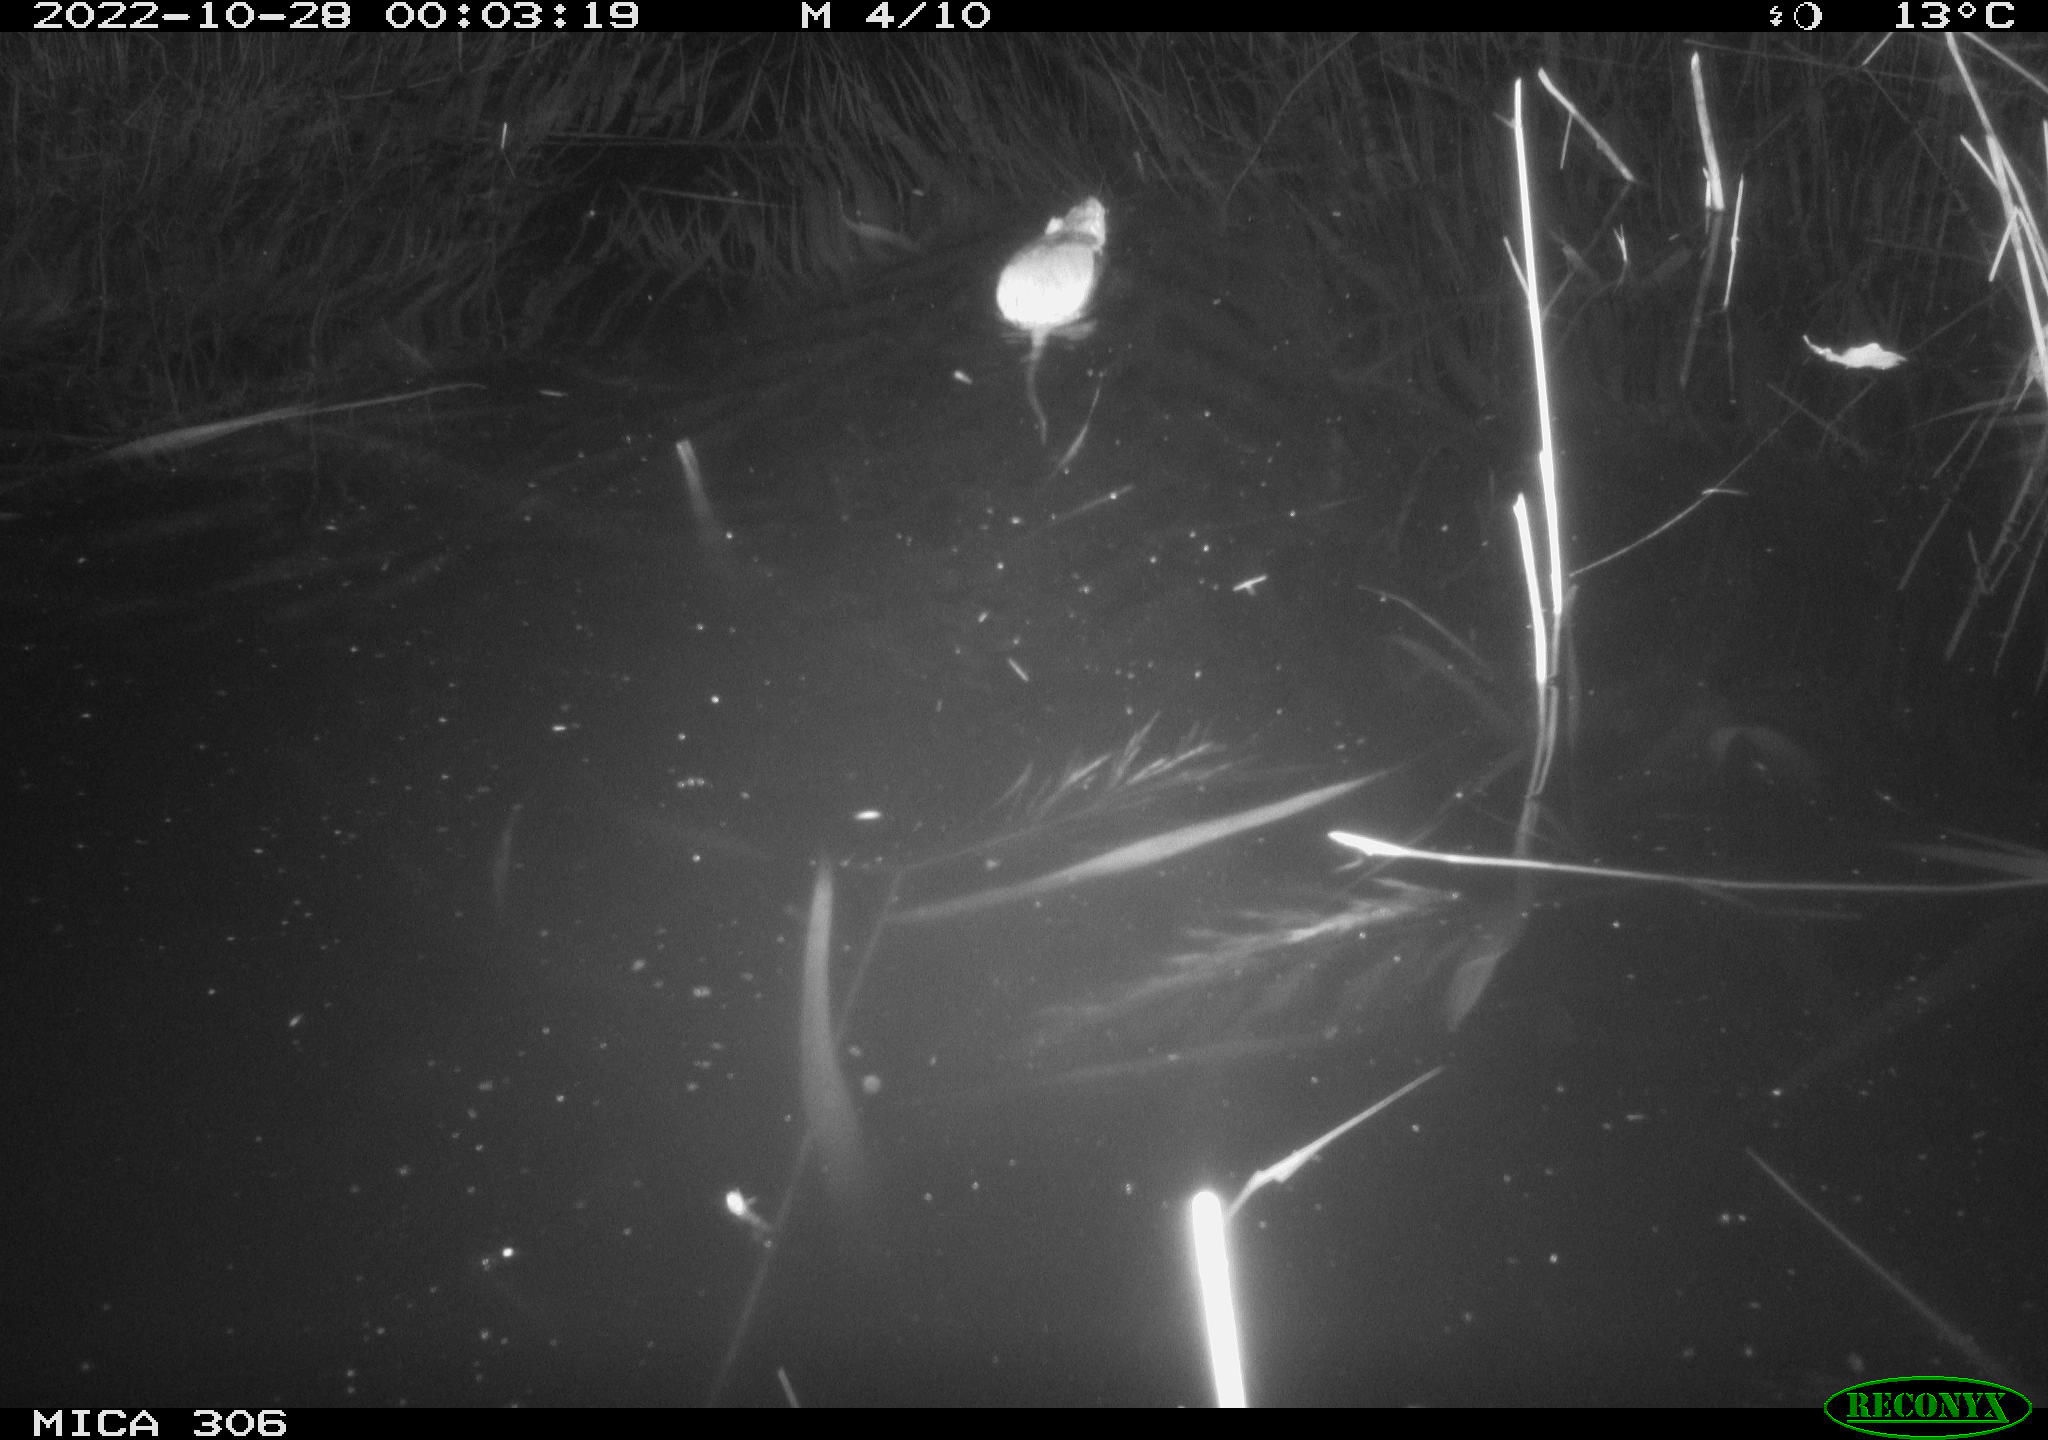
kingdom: Animalia
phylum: Chordata
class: Mammalia
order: Rodentia
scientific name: Rodentia
